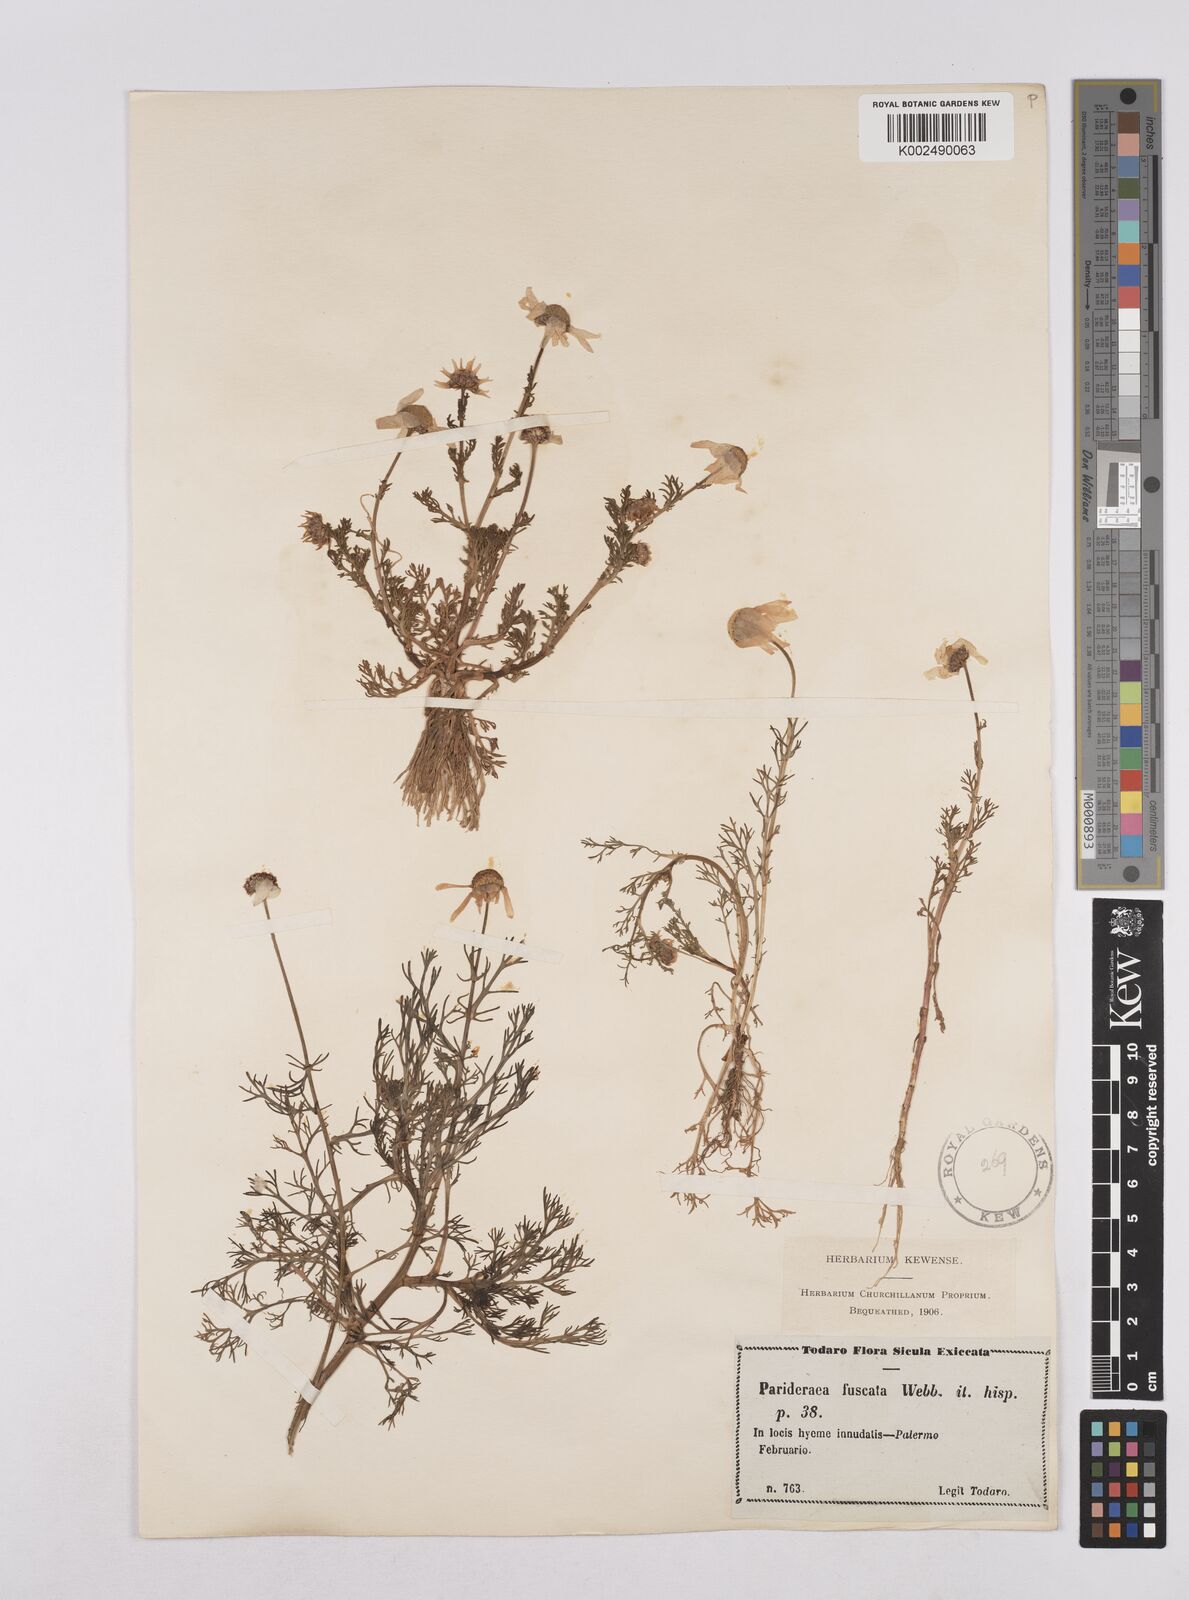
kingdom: Plantae
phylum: Tracheophyta
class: Magnoliopsida
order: Asterales
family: Asteraceae
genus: Chamaemelum
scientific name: Chamaemelum fuscatum
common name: Chamomile
